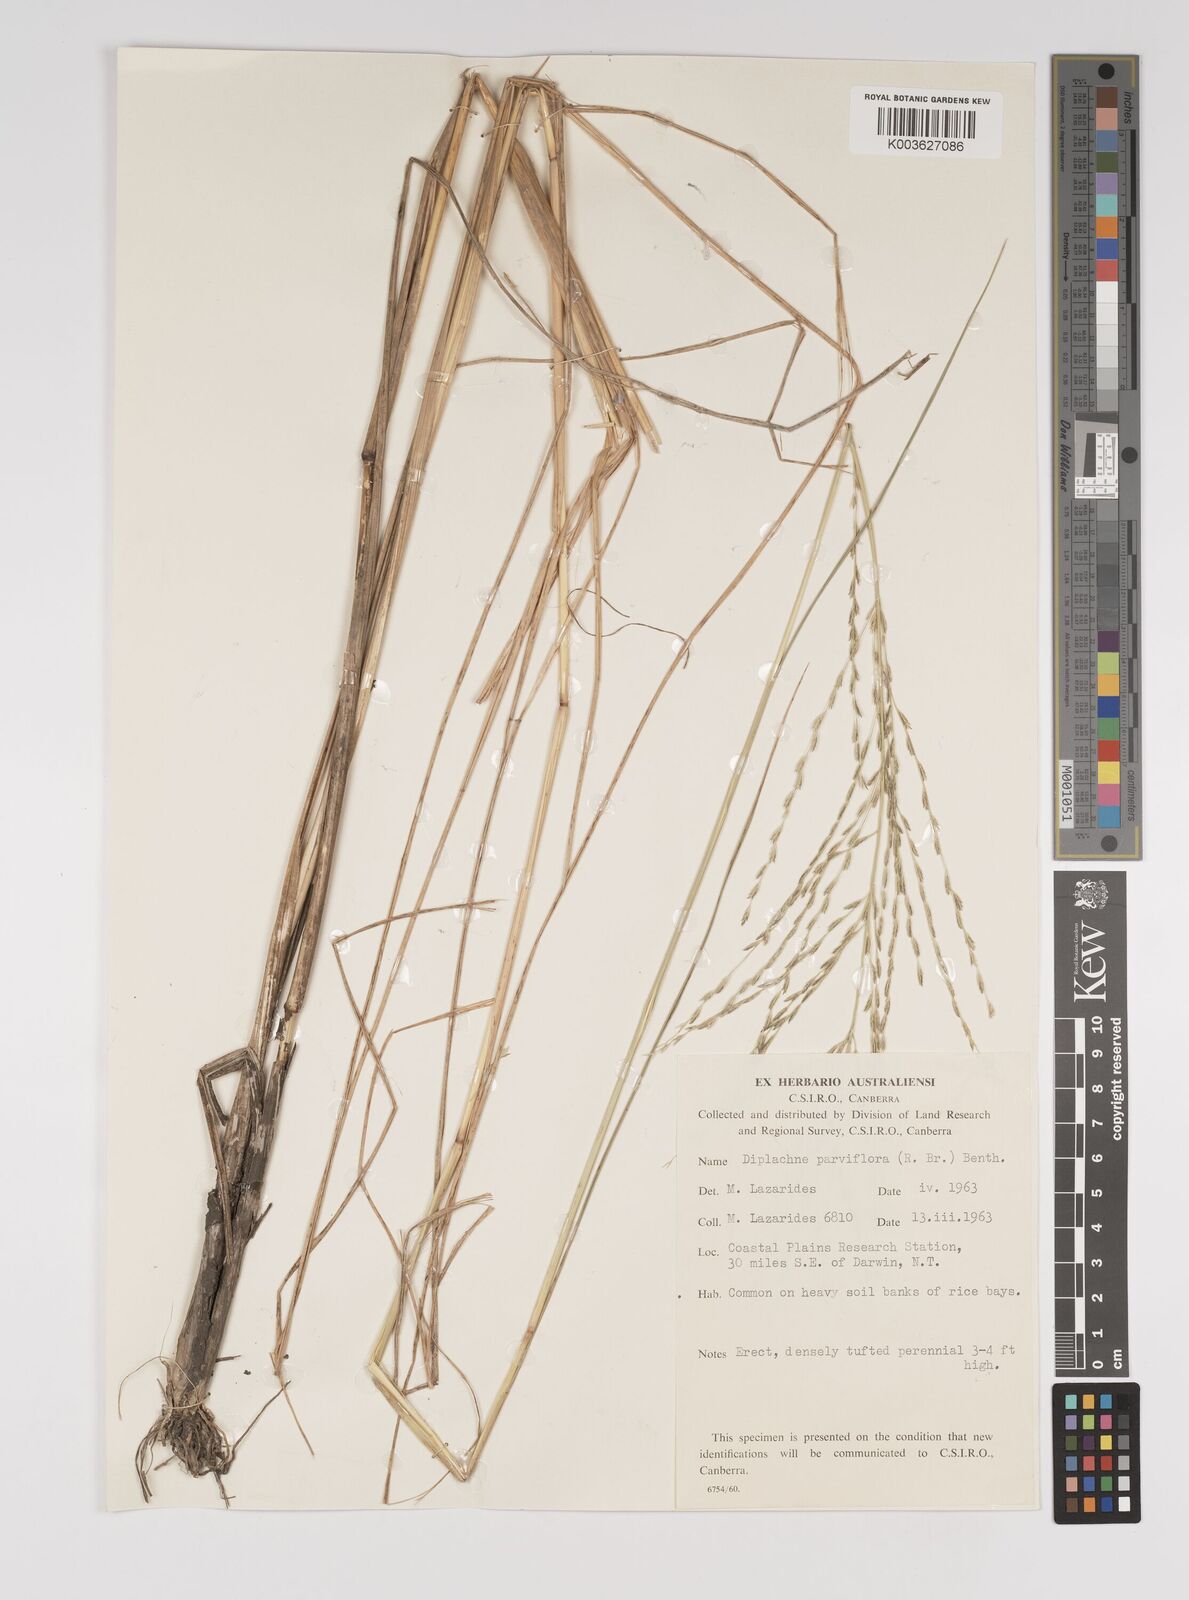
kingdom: Plantae
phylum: Tracheophyta
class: Liliopsida
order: Poales
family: Poaceae
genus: Diplachne
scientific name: Diplachne fusca
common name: Brown beetle grass
